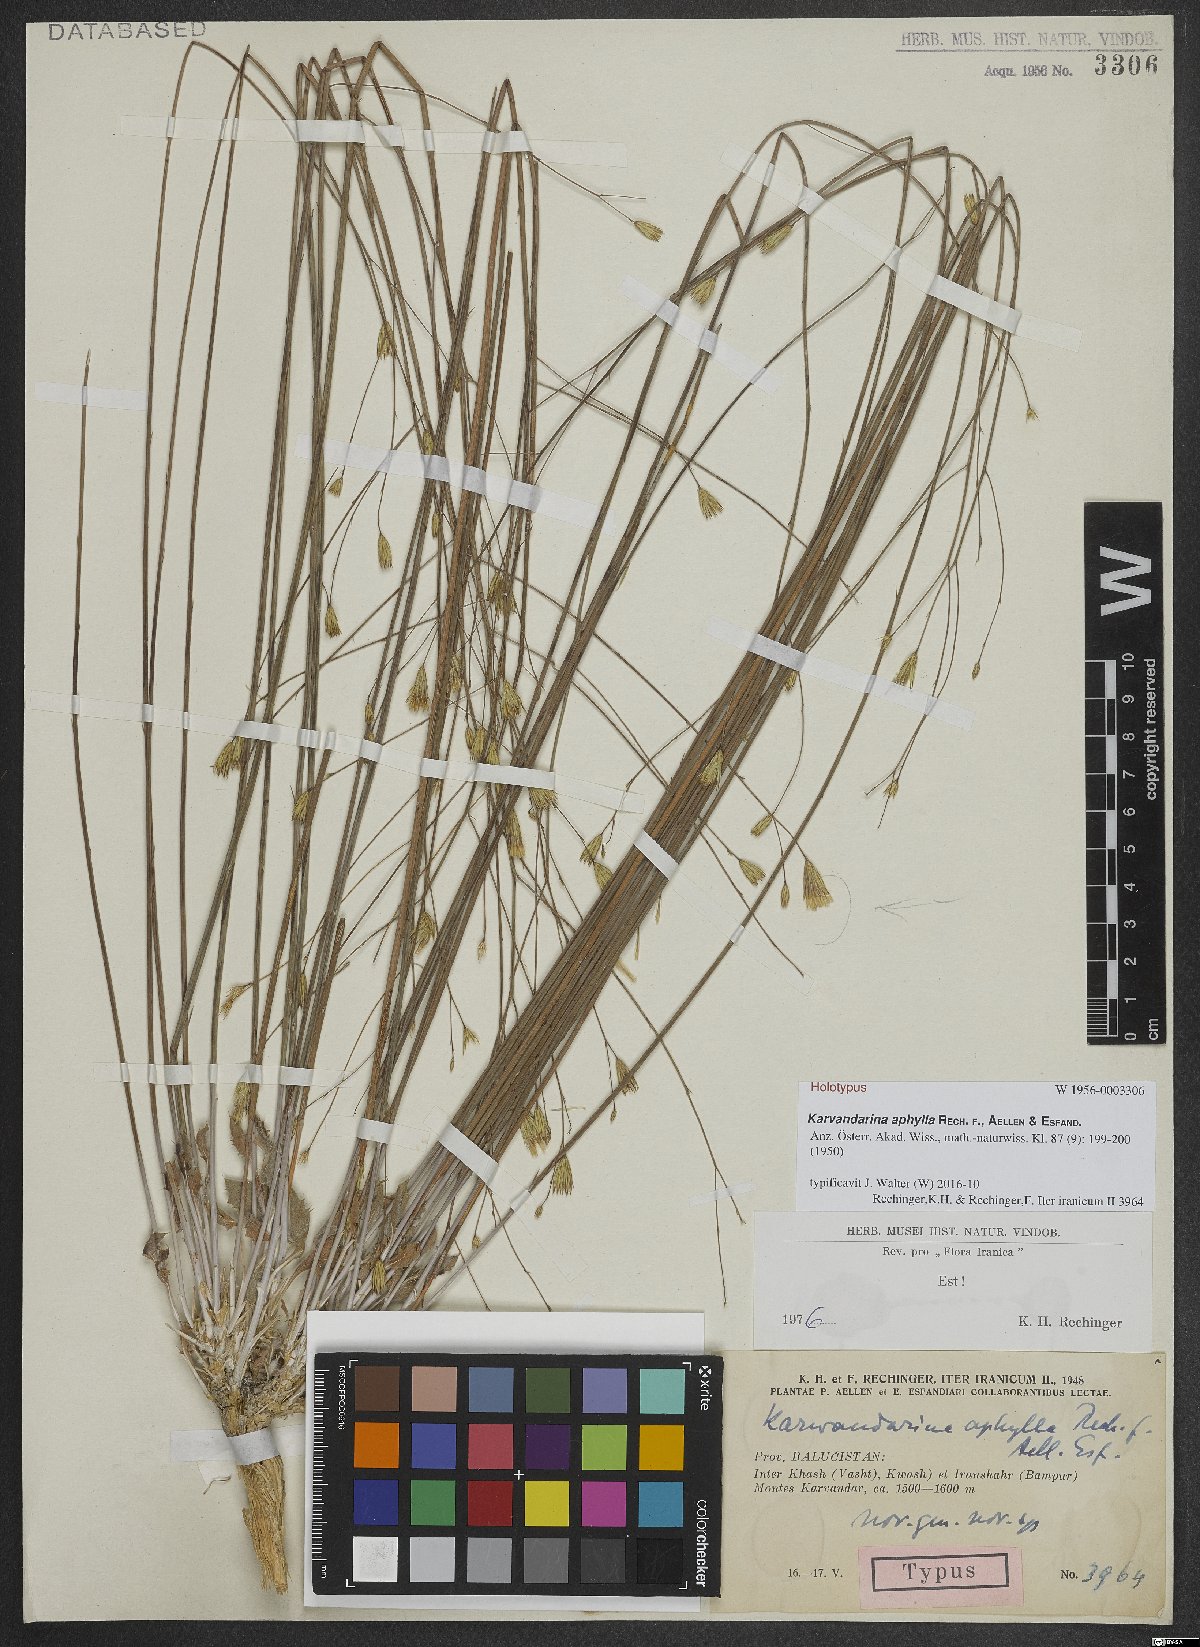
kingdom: Plantae
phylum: Tracheophyta
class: Magnoliopsida
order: Asterales
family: Asteraceae
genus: Karvandarina
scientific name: Karvandarina aphylla
